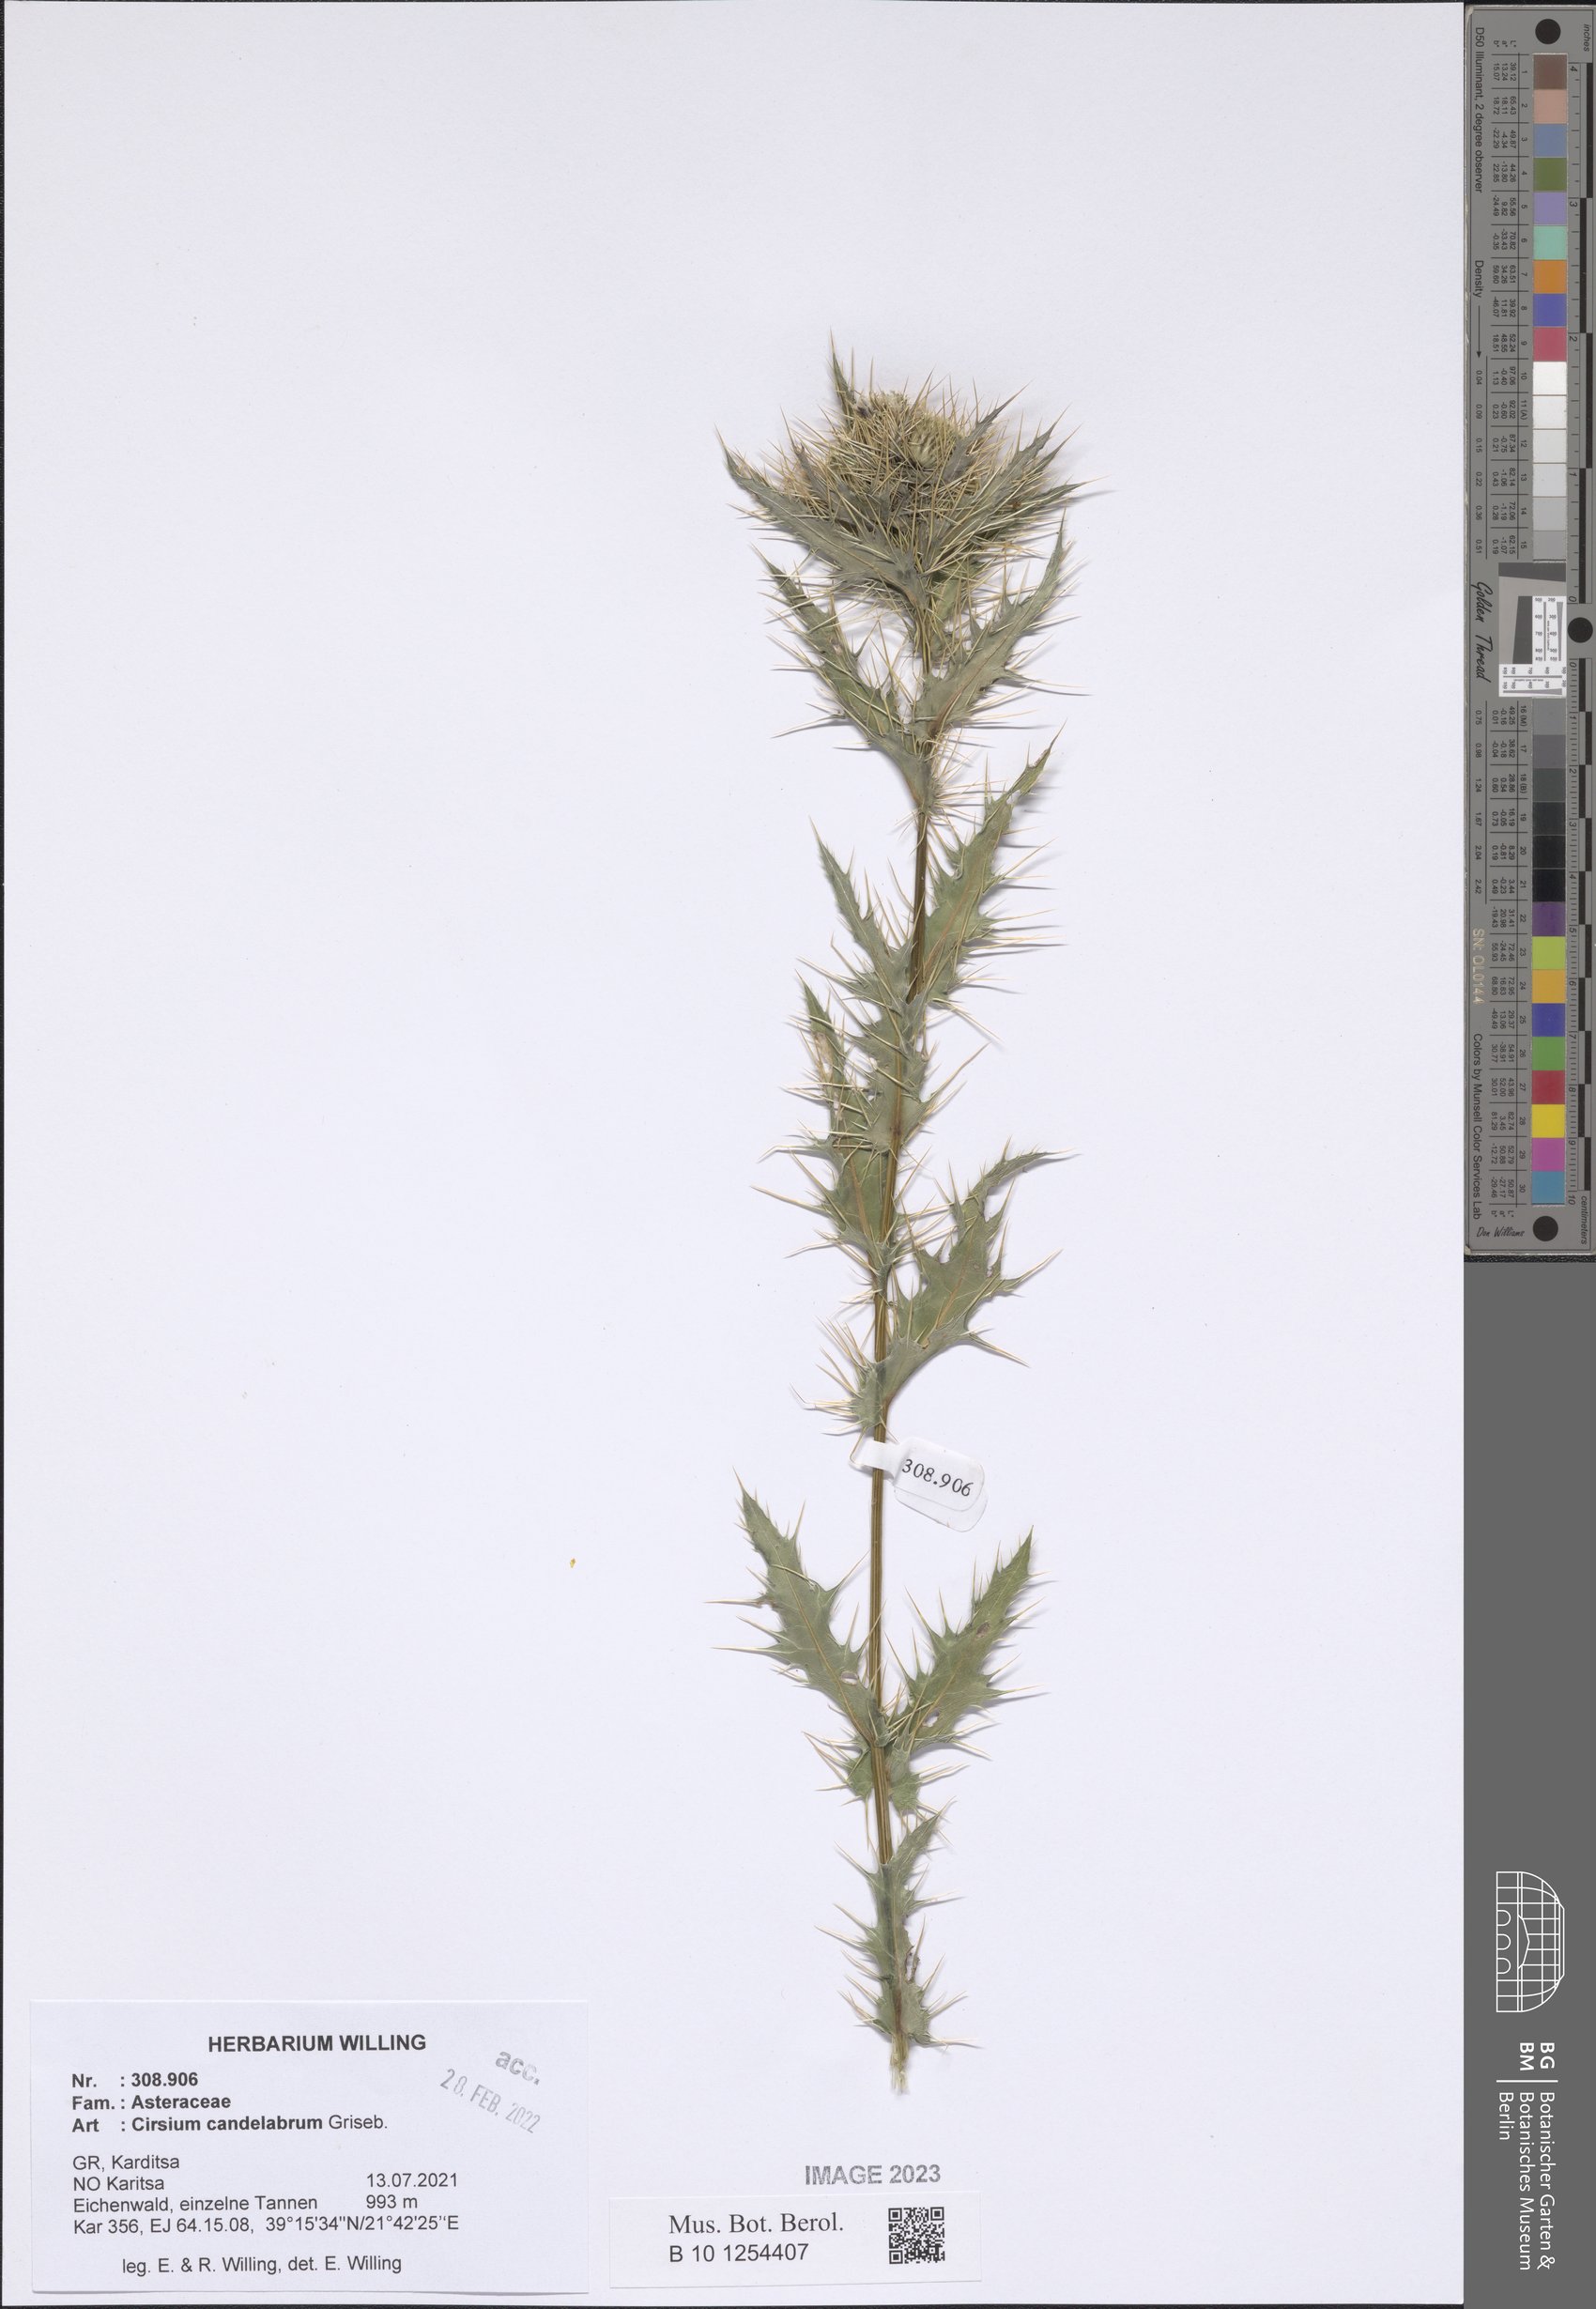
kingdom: Plantae
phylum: Tracheophyta
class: Magnoliopsida
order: Asterales
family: Asteraceae
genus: Cirsium
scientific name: Cirsium candelabrum
